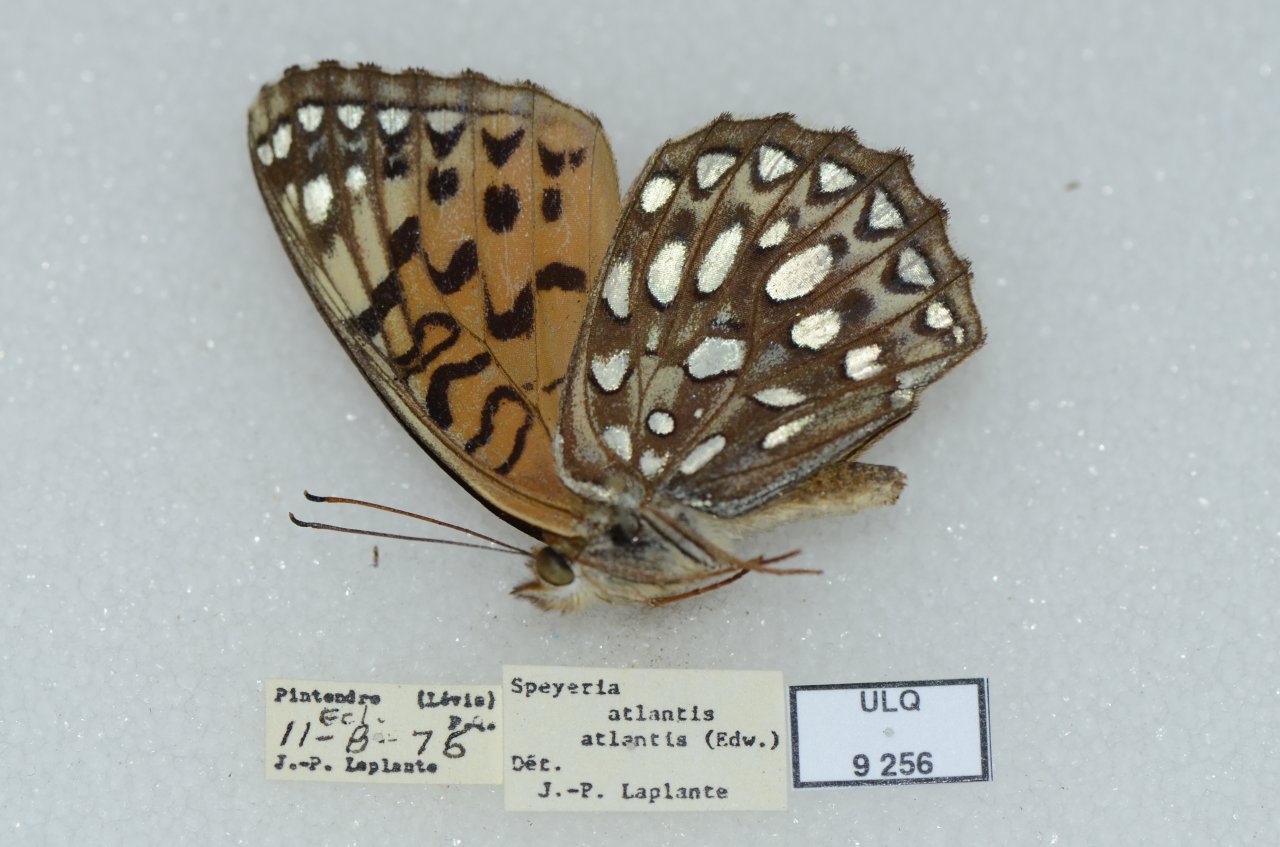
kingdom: Animalia
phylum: Arthropoda
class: Insecta
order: Lepidoptera
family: Nymphalidae
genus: Speyeria
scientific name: Speyeria atlantis
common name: Atlantis Fritillary
